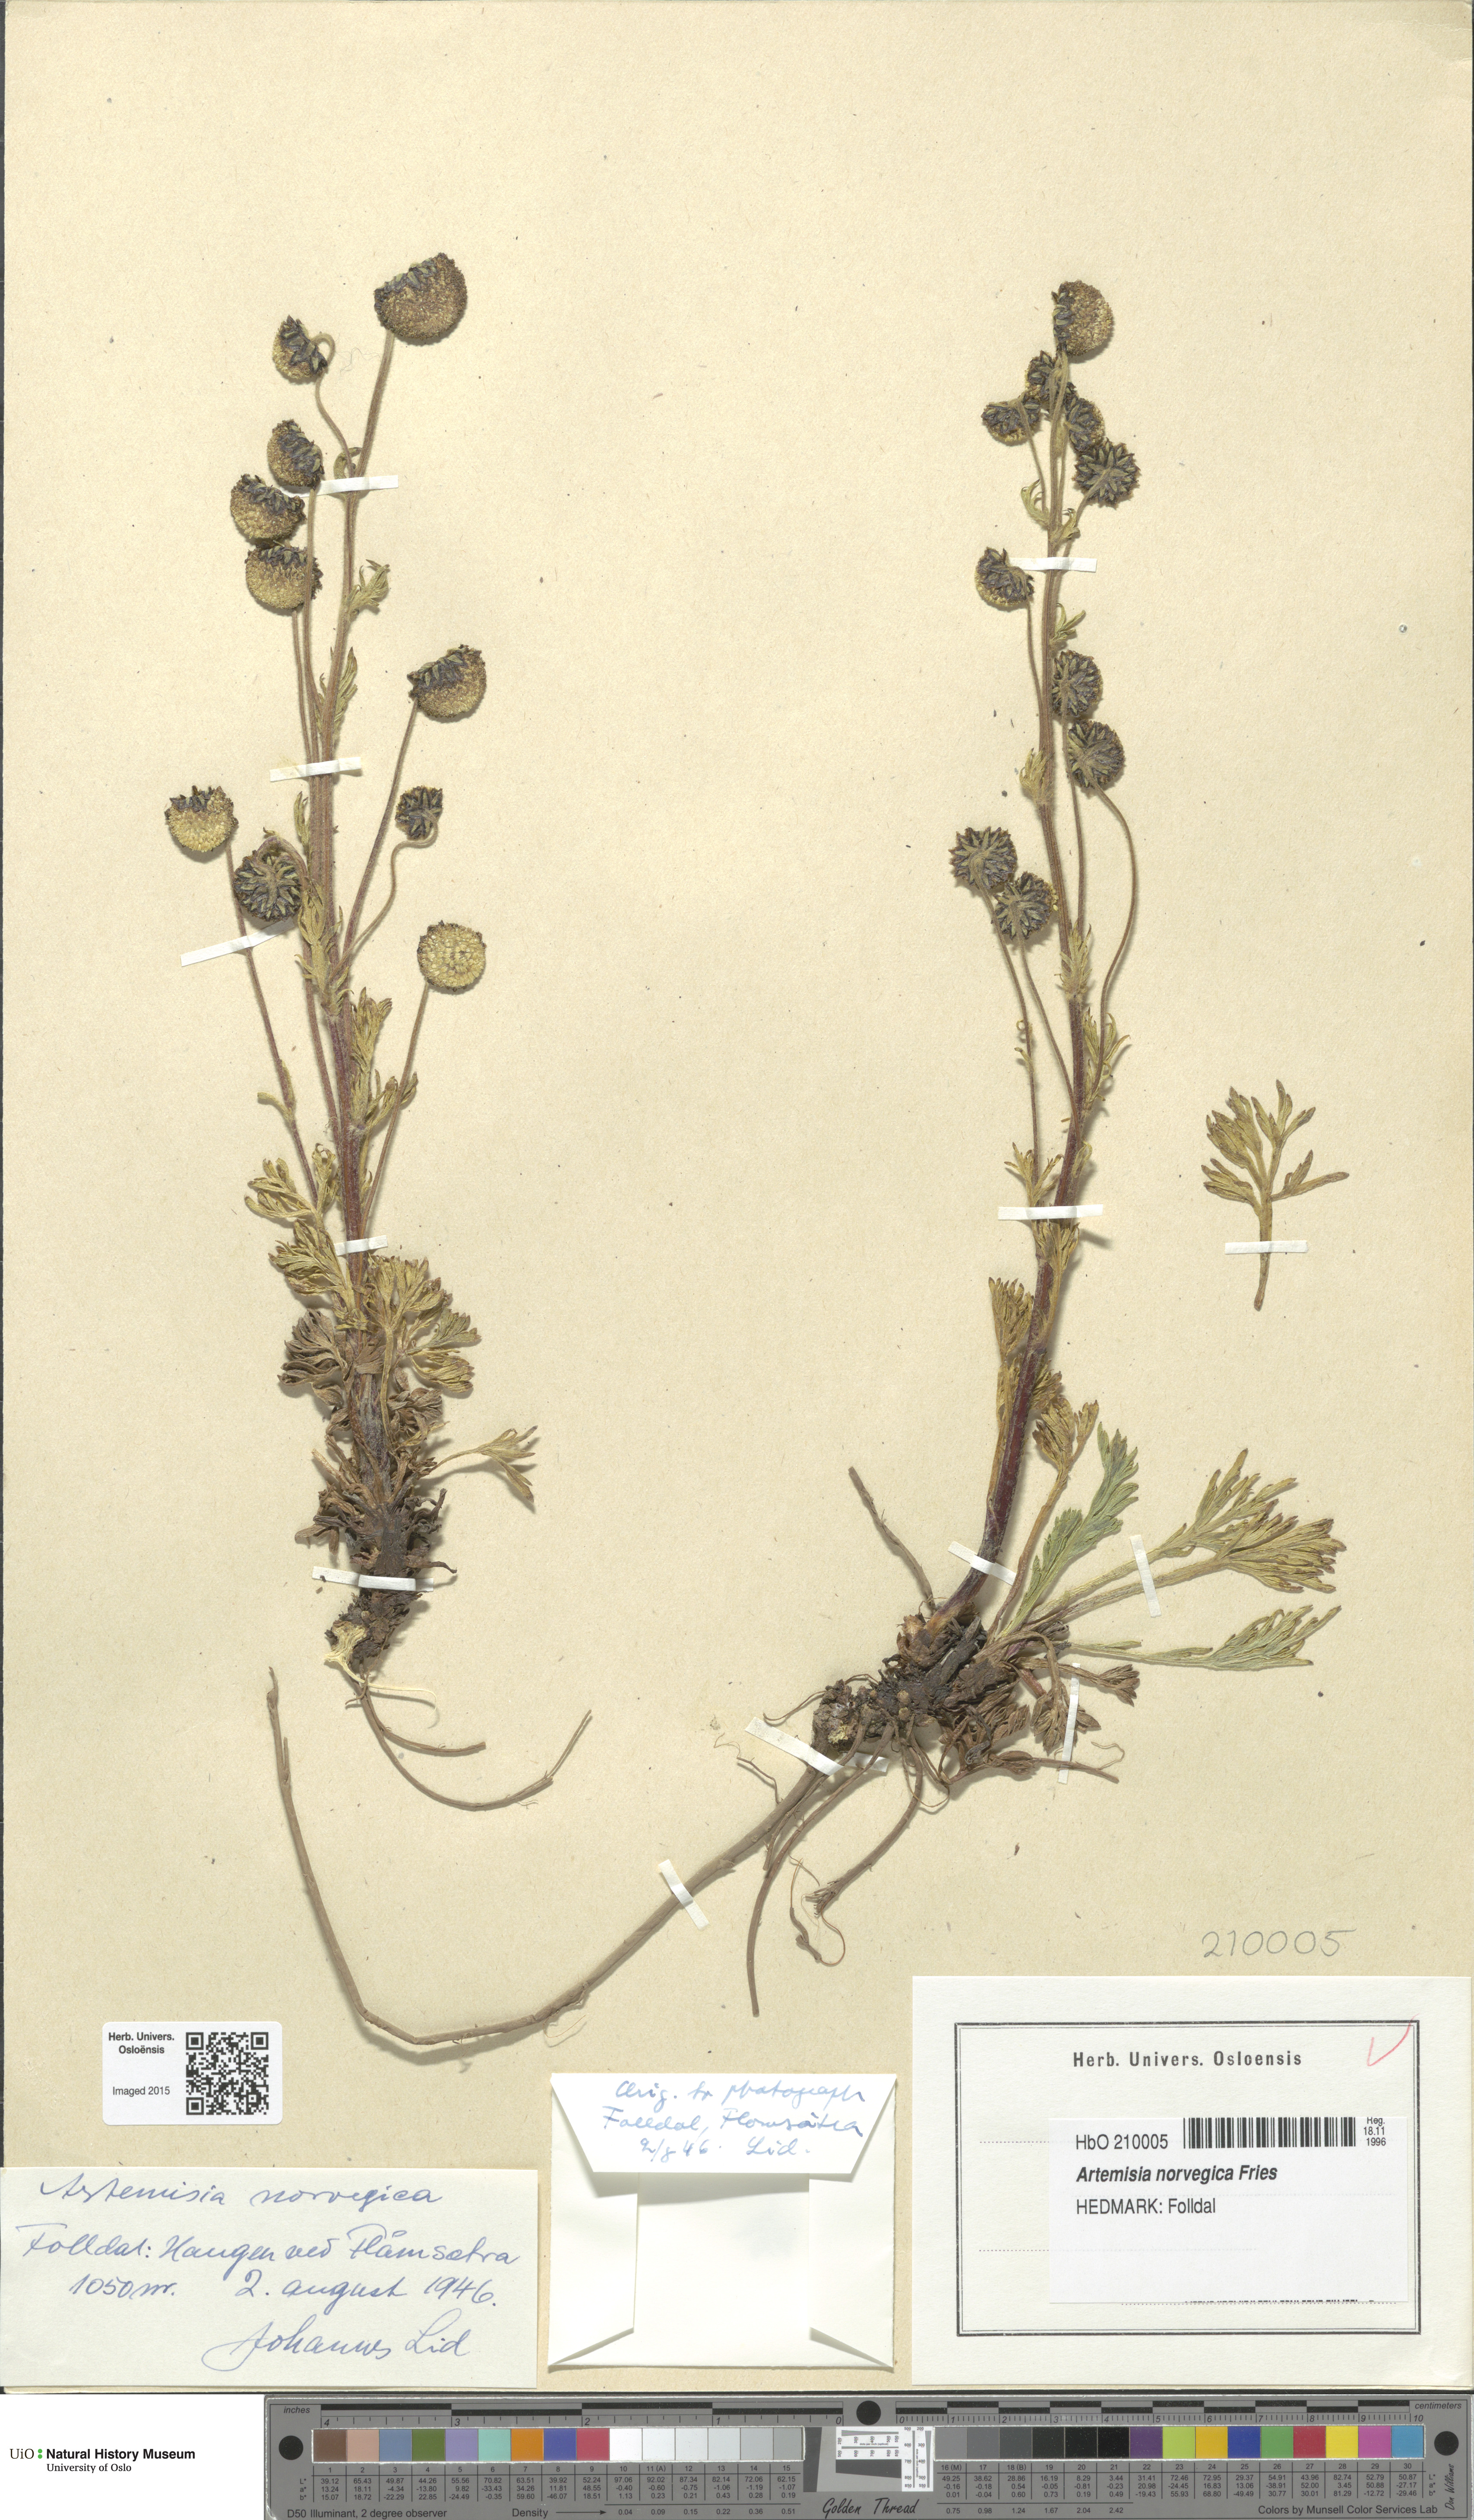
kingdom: Plantae
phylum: Tracheophyta
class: Magnoliopsida
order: Asterales
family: Asteraceae
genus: Artemisia
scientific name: Artemisia norvegica
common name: Norwegian mugwort
